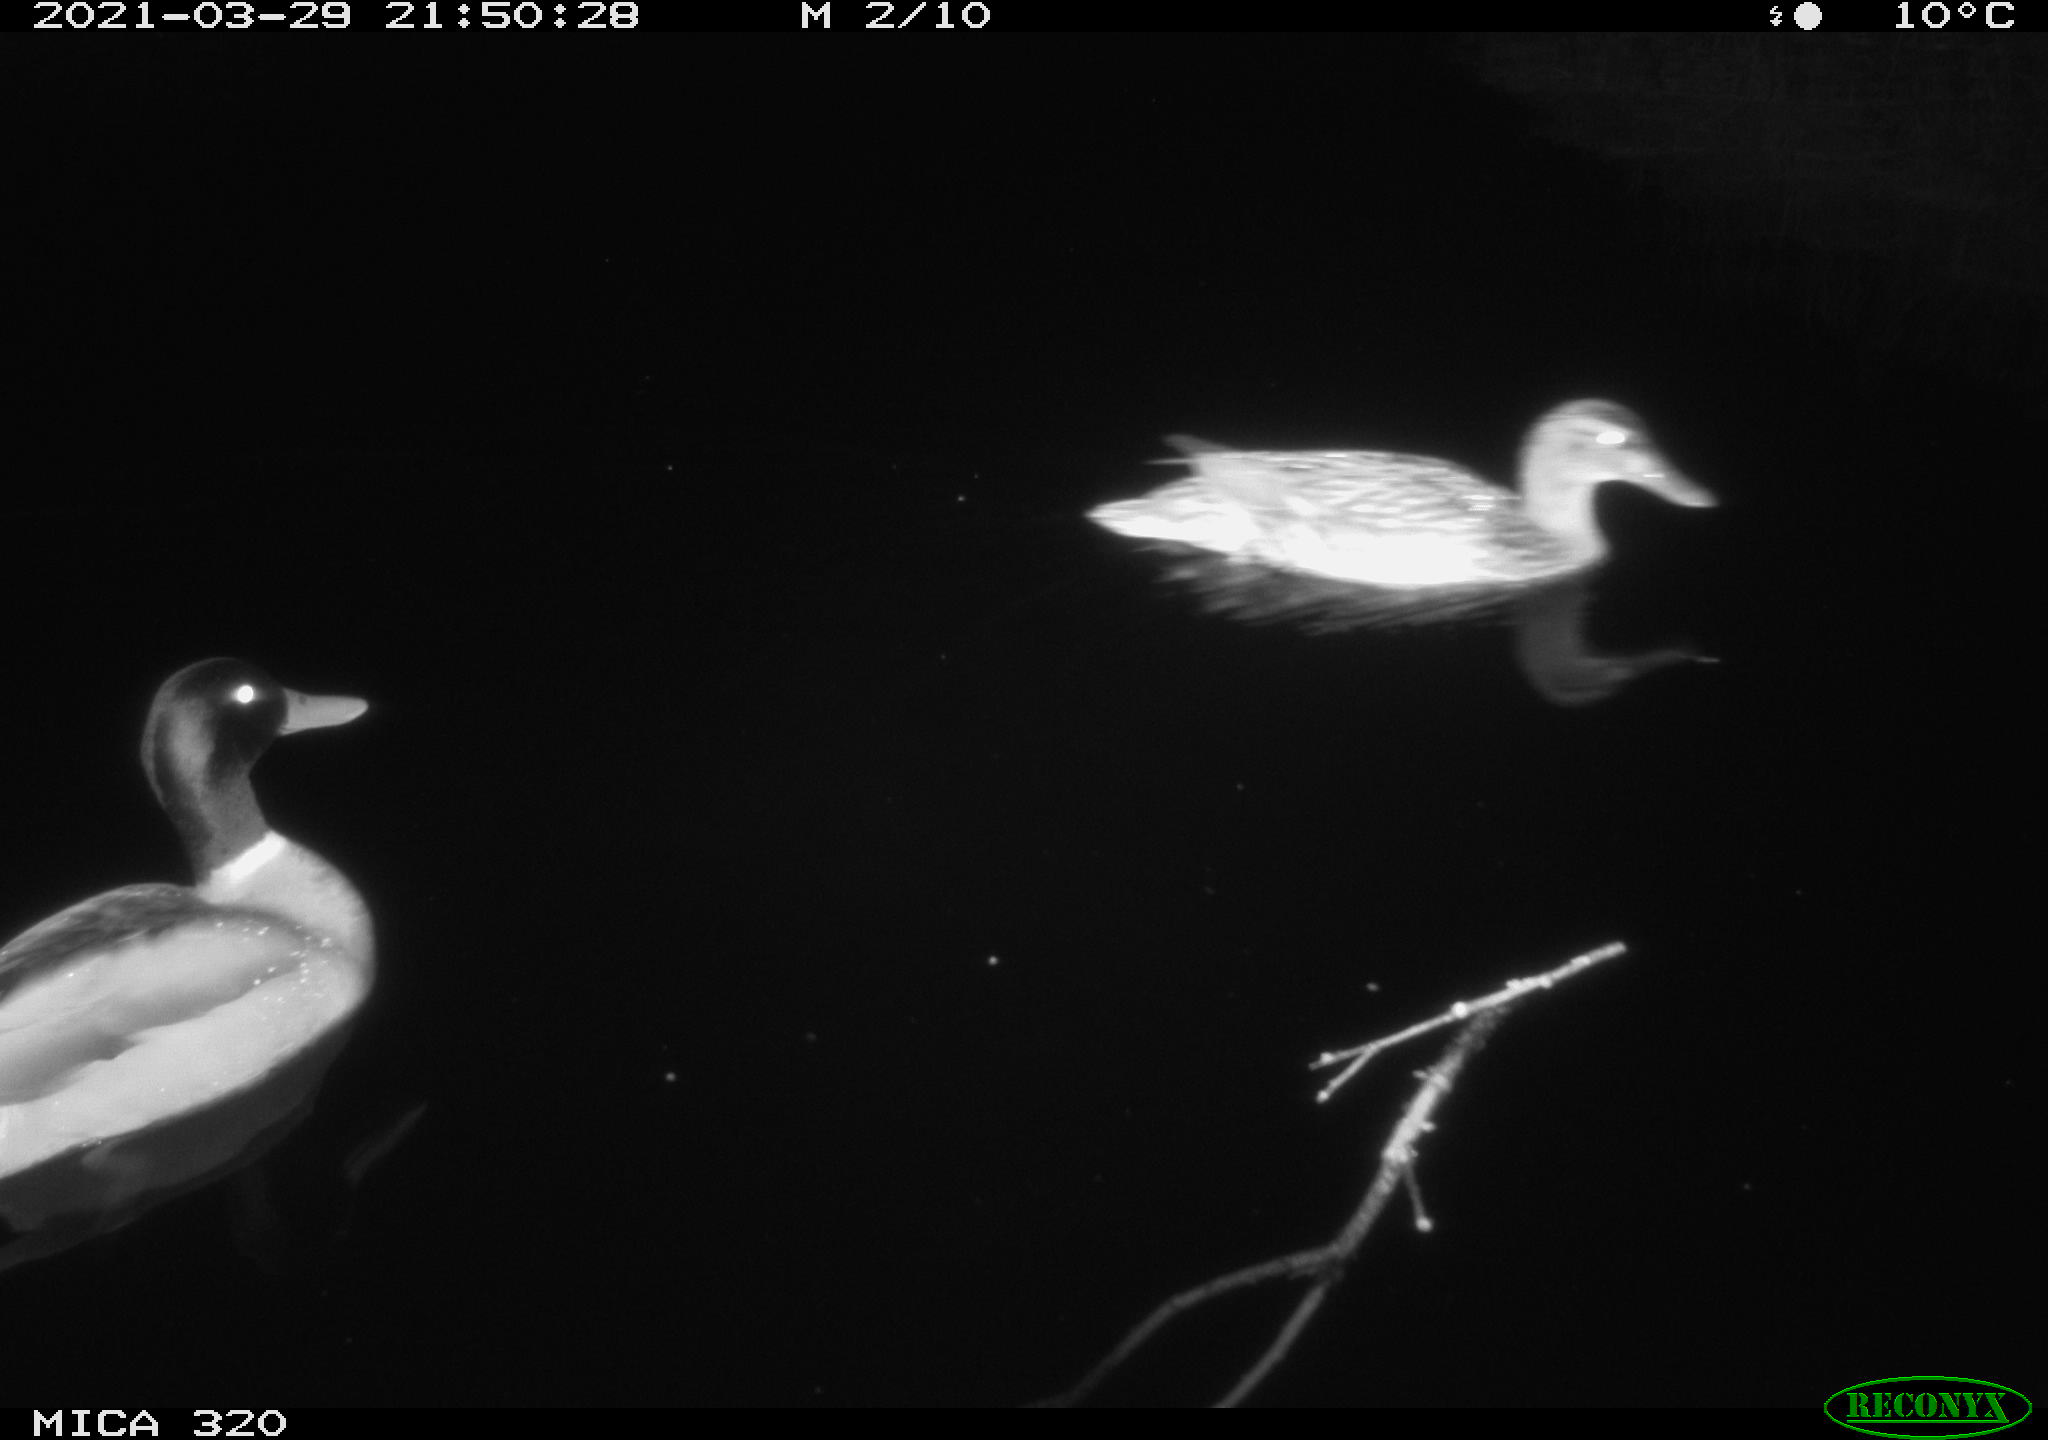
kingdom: Animalia
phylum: Chordata
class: Aves
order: Anseriformes
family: Anatidae
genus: Anas
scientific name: Anas platyrhynchos
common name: Mallard
